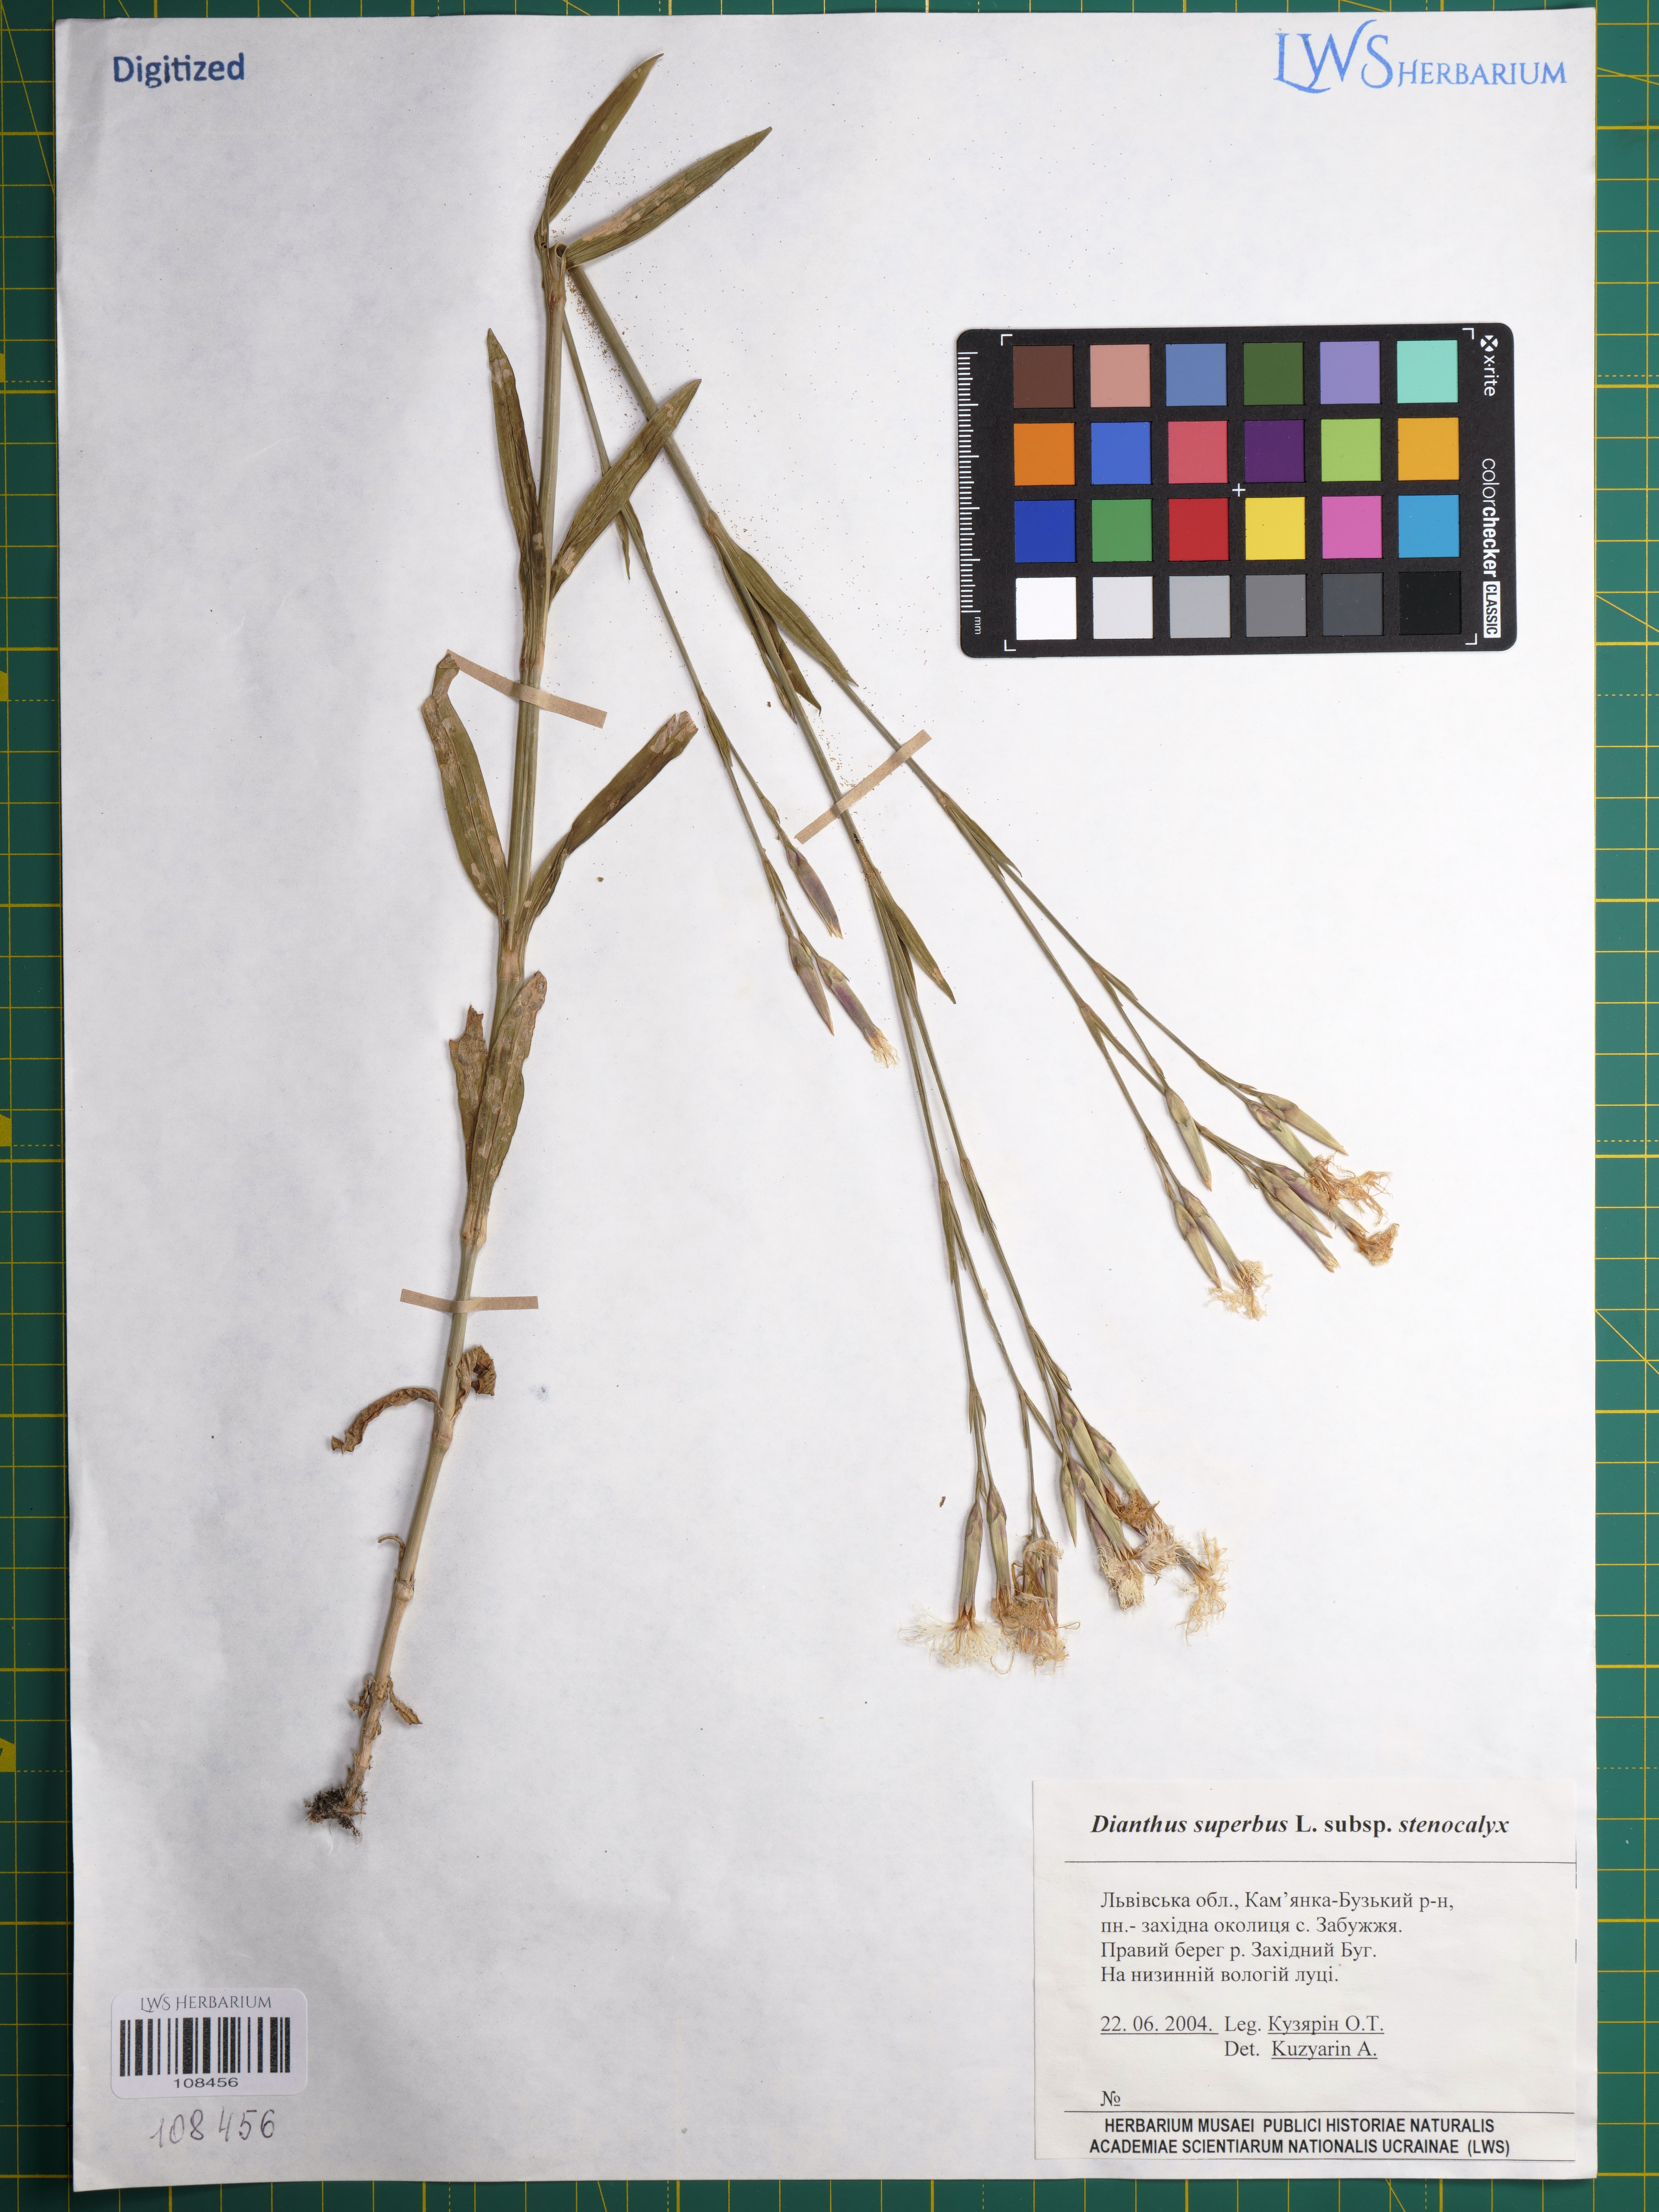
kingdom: Plantae
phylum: Tracheophyta
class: Magnoliopsida
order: Caryophyllales
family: Caryophyllaceae
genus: Dianthus
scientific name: Dianthus superbus
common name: Fringed pink
